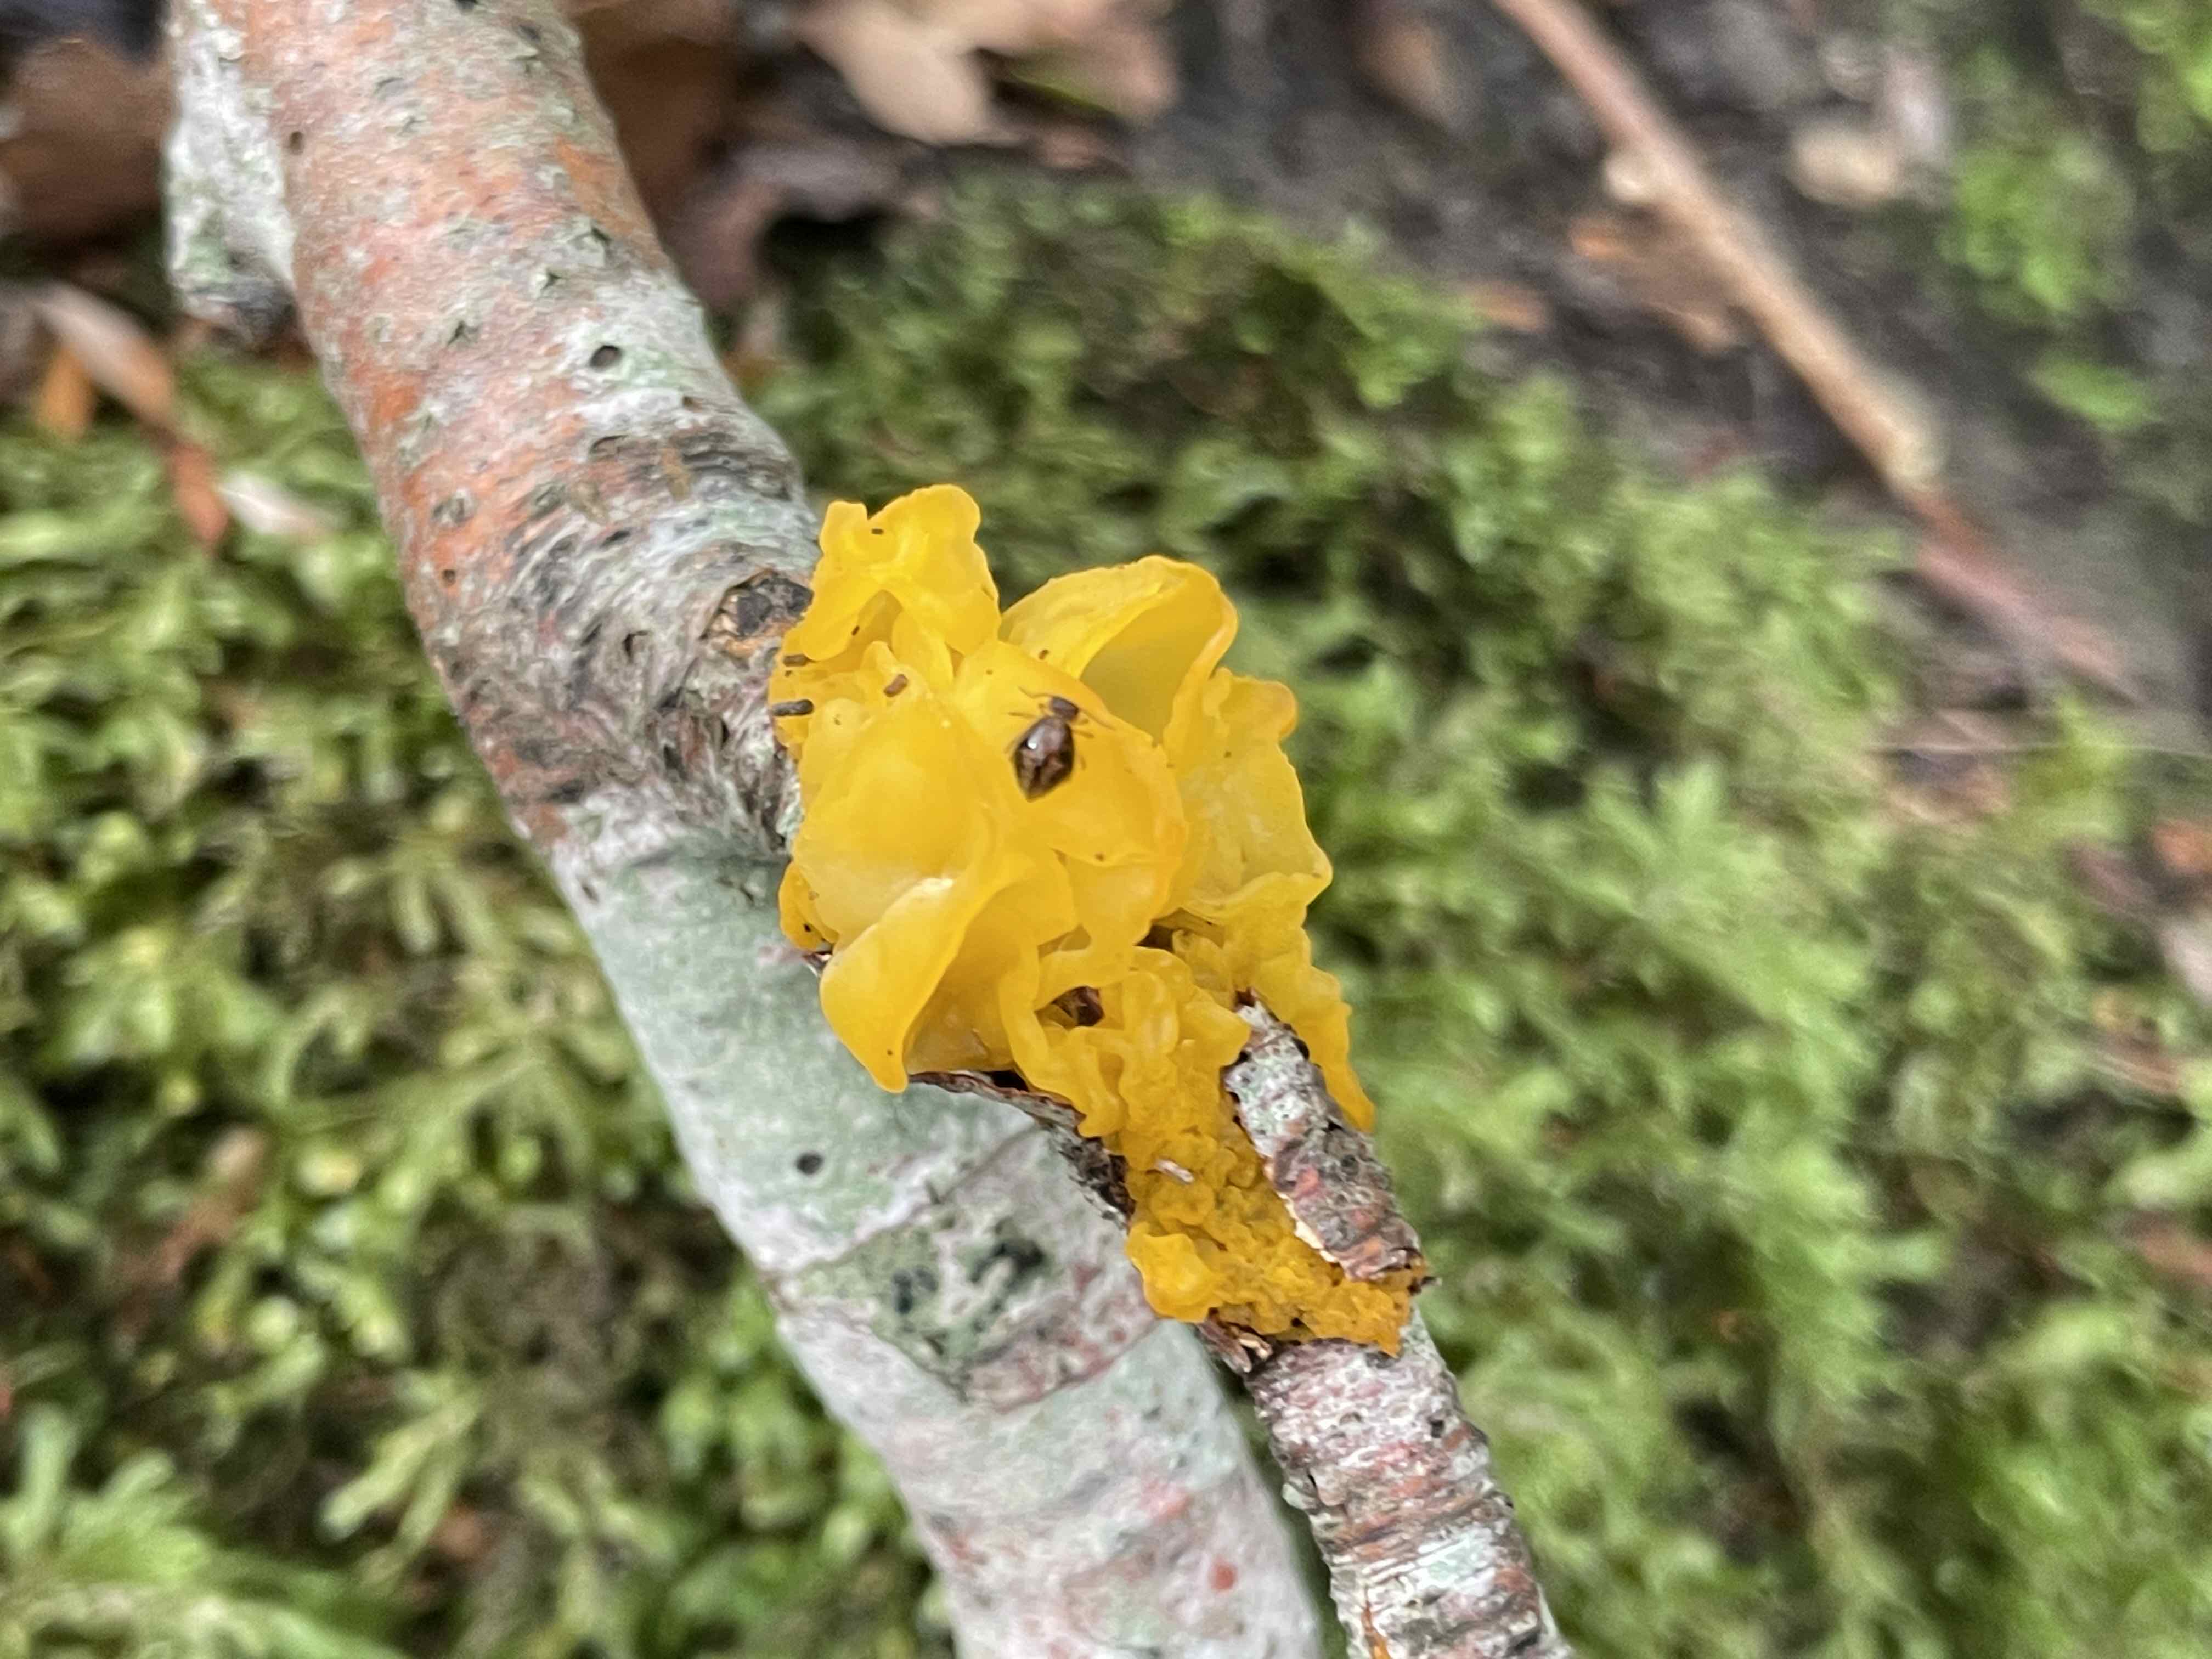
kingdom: Fungi
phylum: Basidiomycota
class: Tremellomycetes
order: Tremellales
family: Tremellaceae
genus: Tremella
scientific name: Tremella mesenterica
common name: gul bævresvamp
